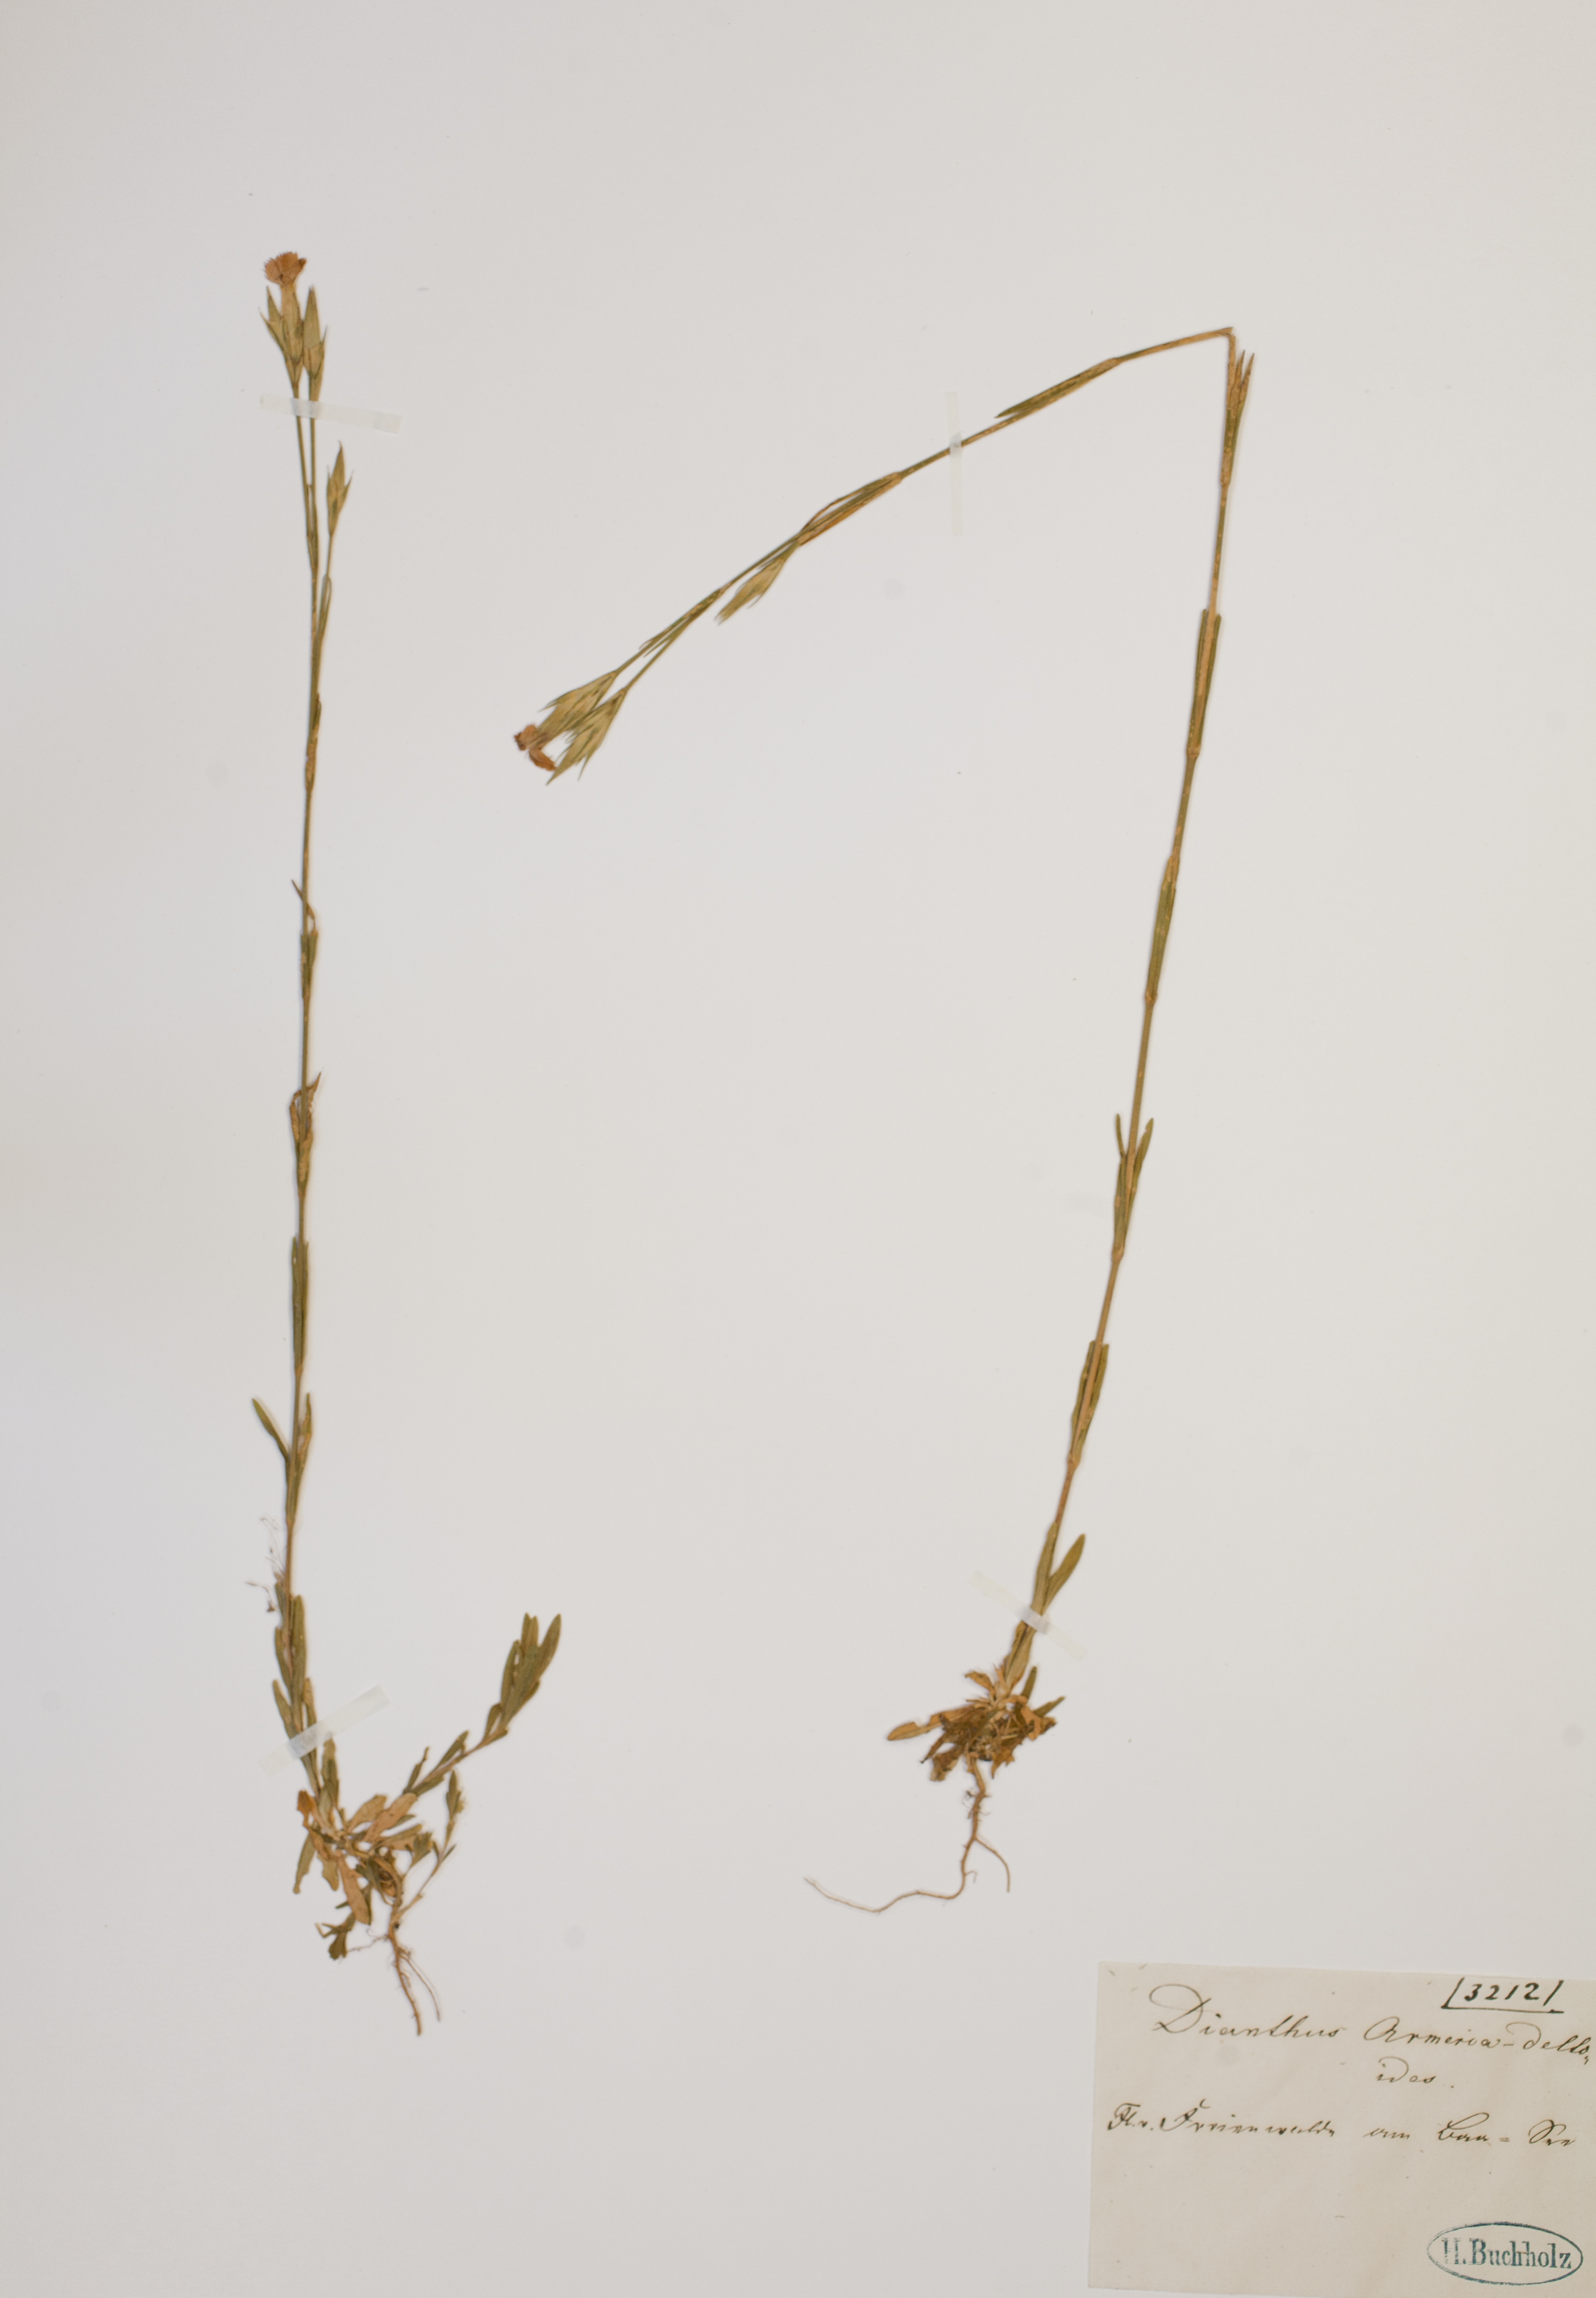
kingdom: Plantae
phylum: Tracheophyta
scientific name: Tracheophyta
